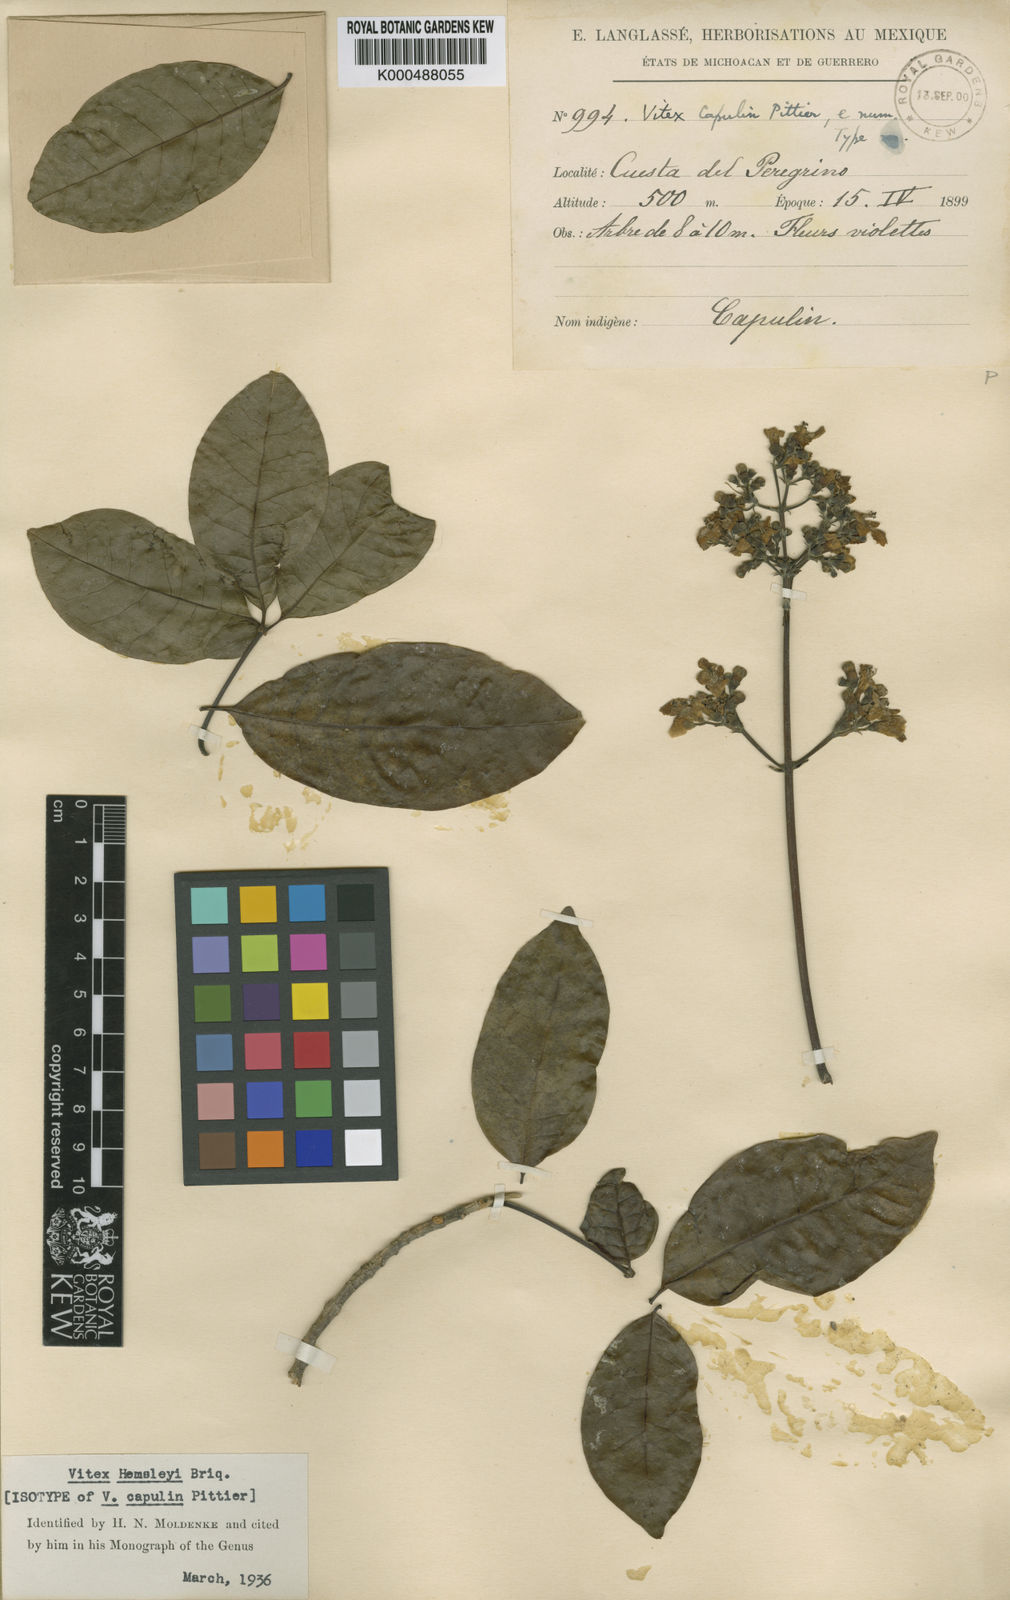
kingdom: Plantae
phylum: Tracheophyta
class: Magnoliopsida
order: Lamiales
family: Lamiaceae
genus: Vitex
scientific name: Vitex hemsleyi
